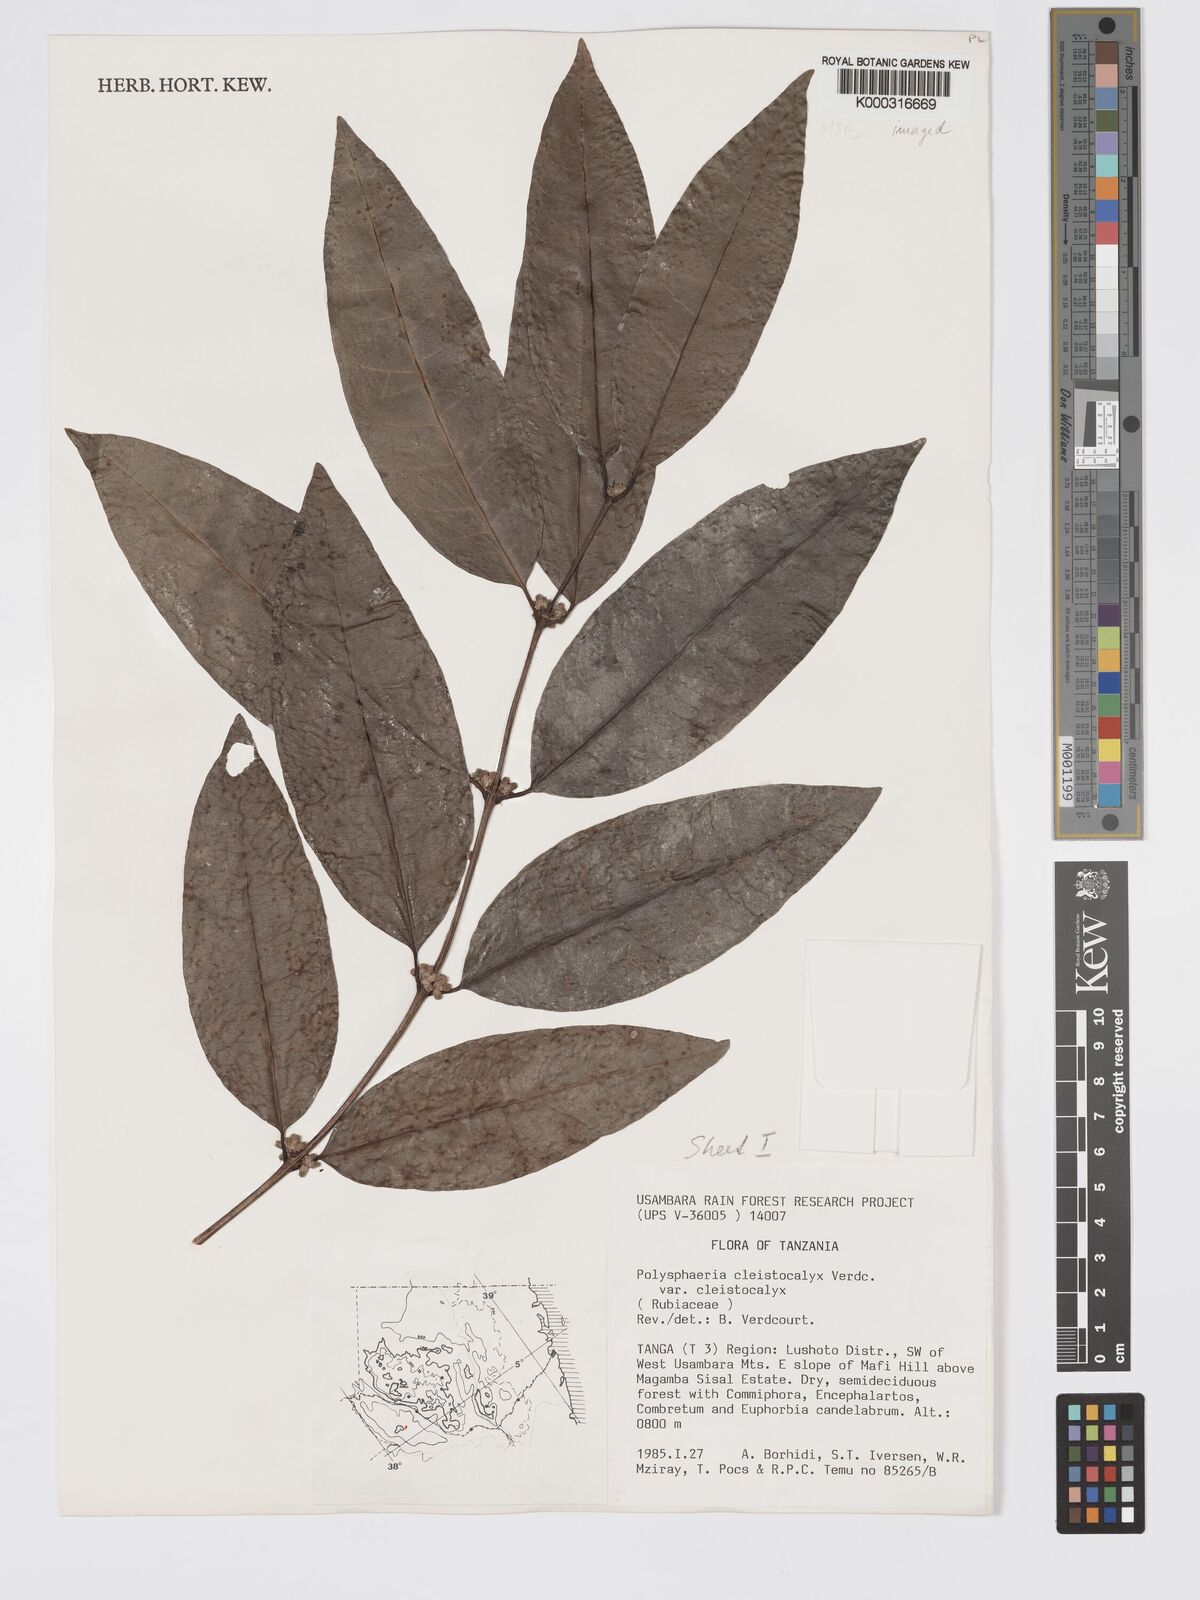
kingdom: Plantae
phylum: Tracheophyta
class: Magnoliopsida
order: Gentianales
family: Rubiaceae
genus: Polysphaeria
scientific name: Polysphaeria cleistocalyx
